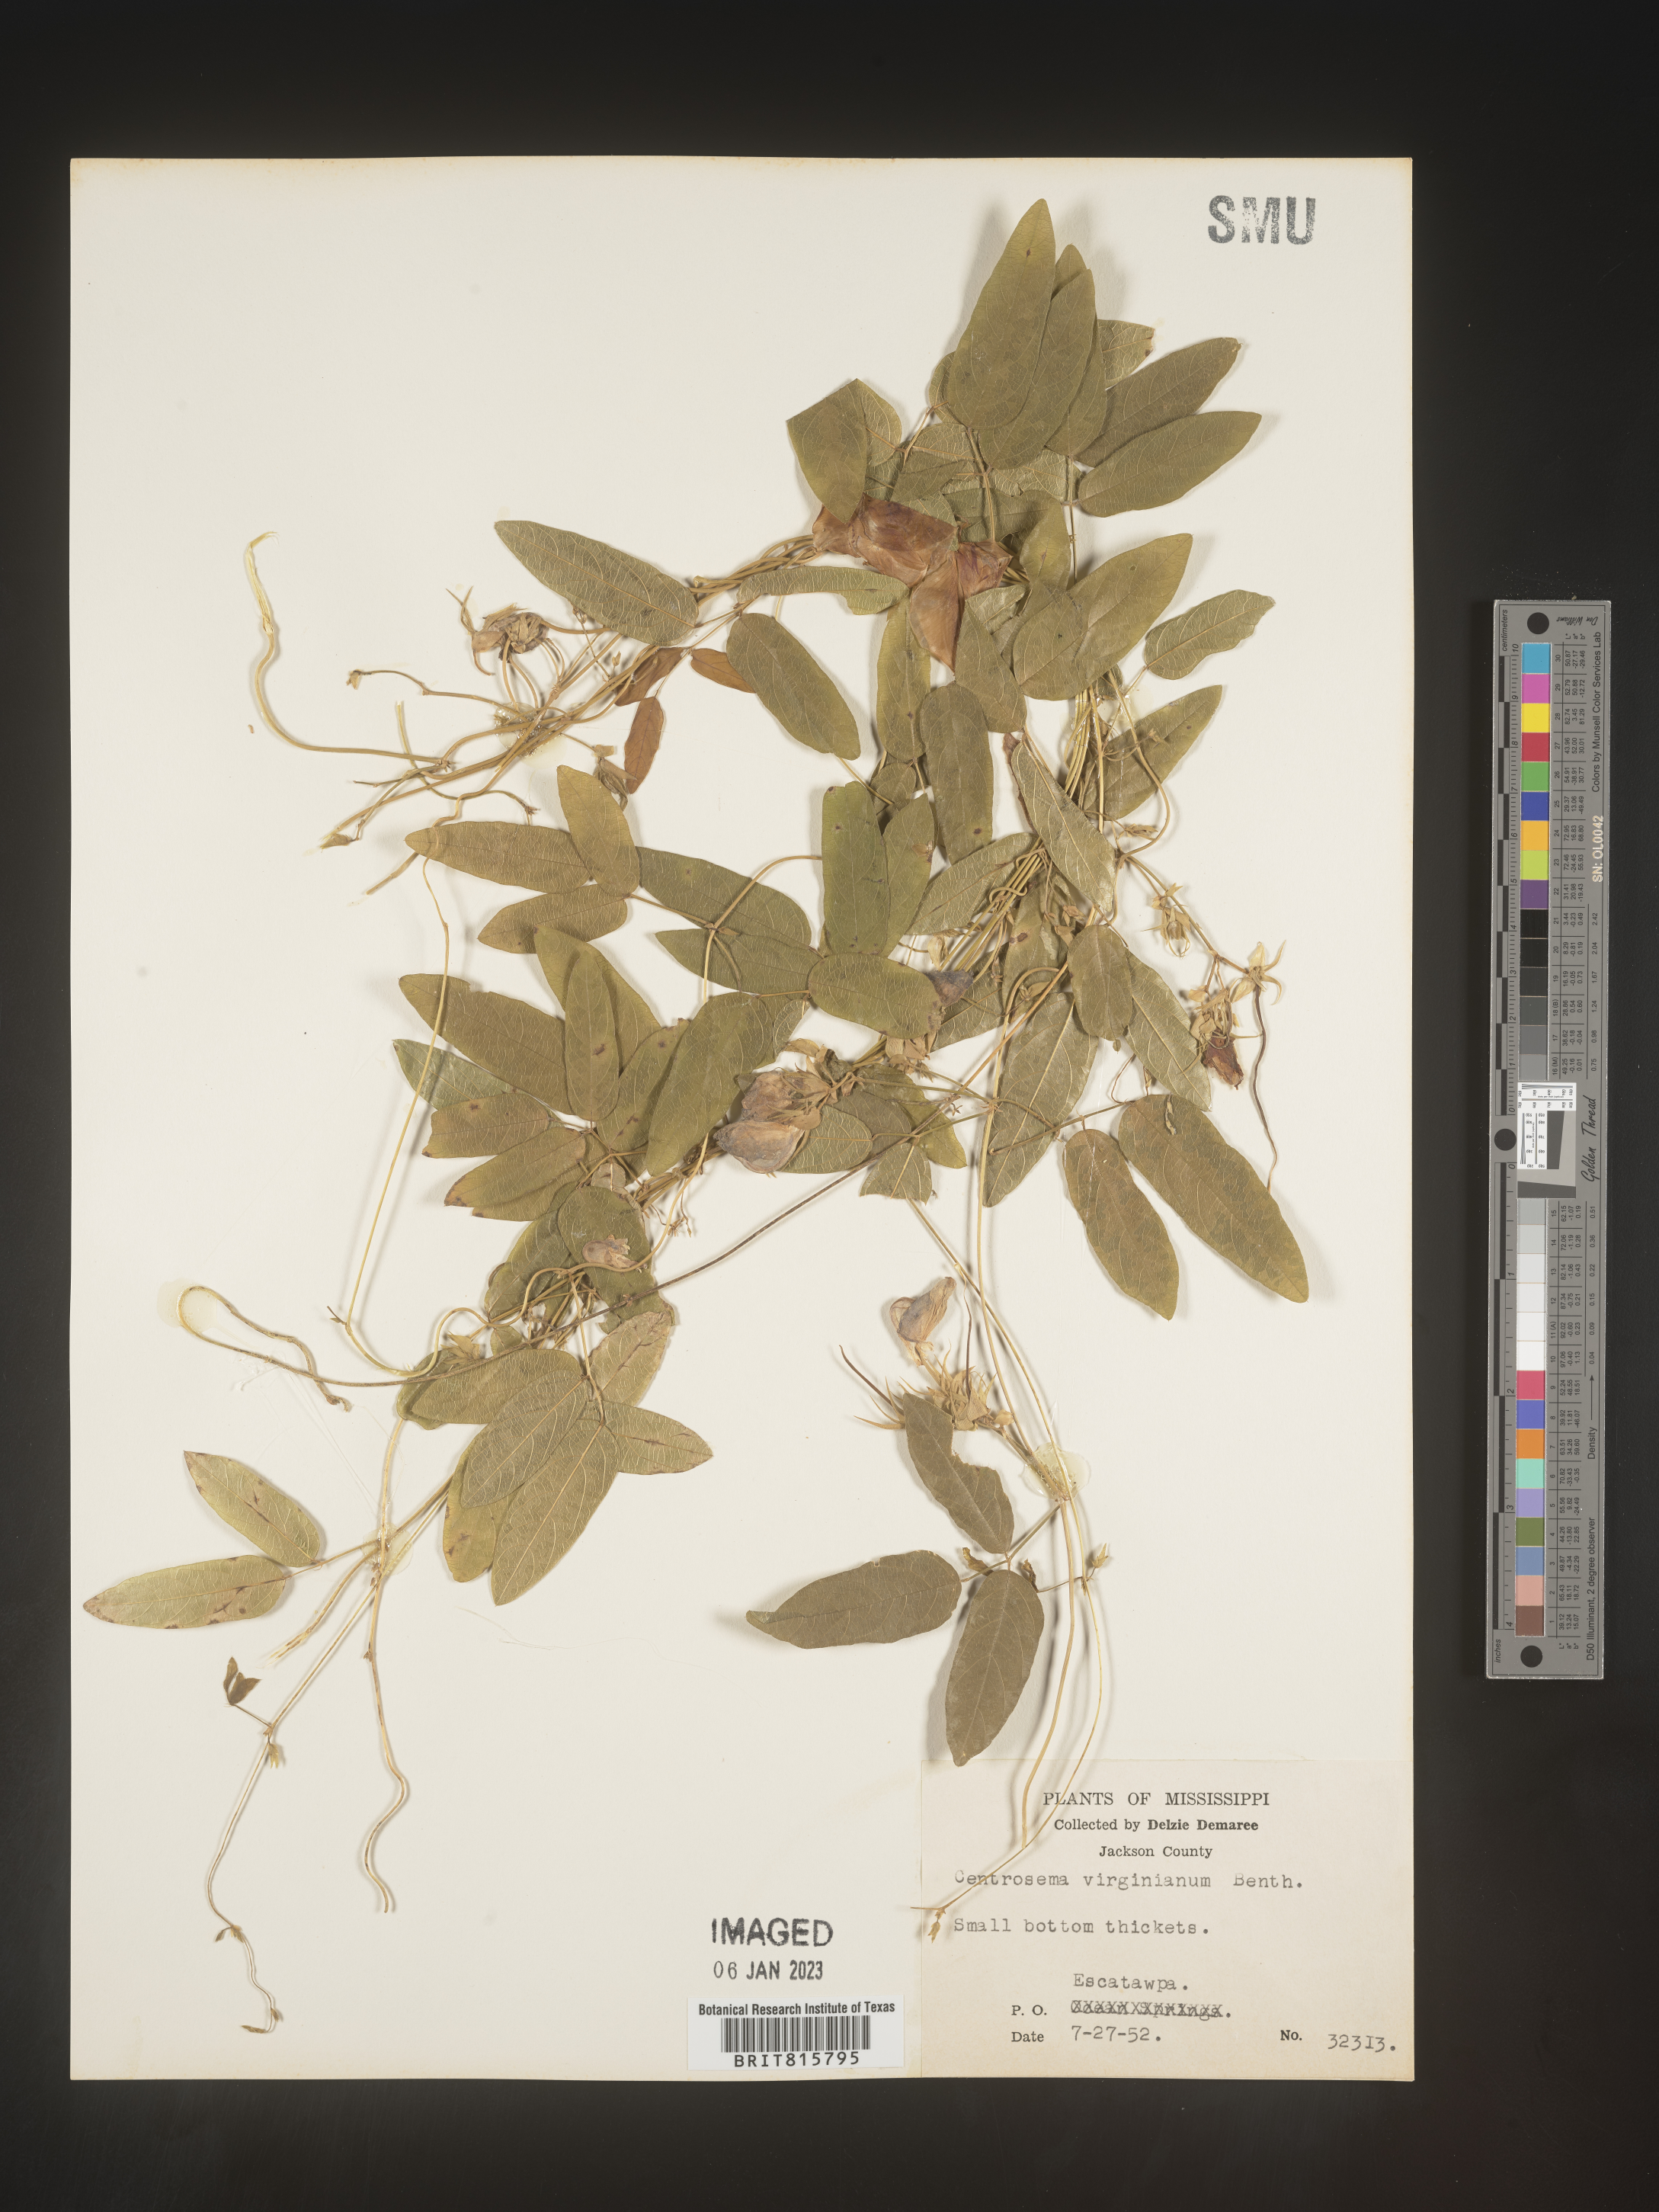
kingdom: Plantae
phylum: Tracheophyta
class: Magnoliopsida
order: Fabales
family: Fabaceae
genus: Centrosema
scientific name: Centrosema virginianum
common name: Butterfly-pea
